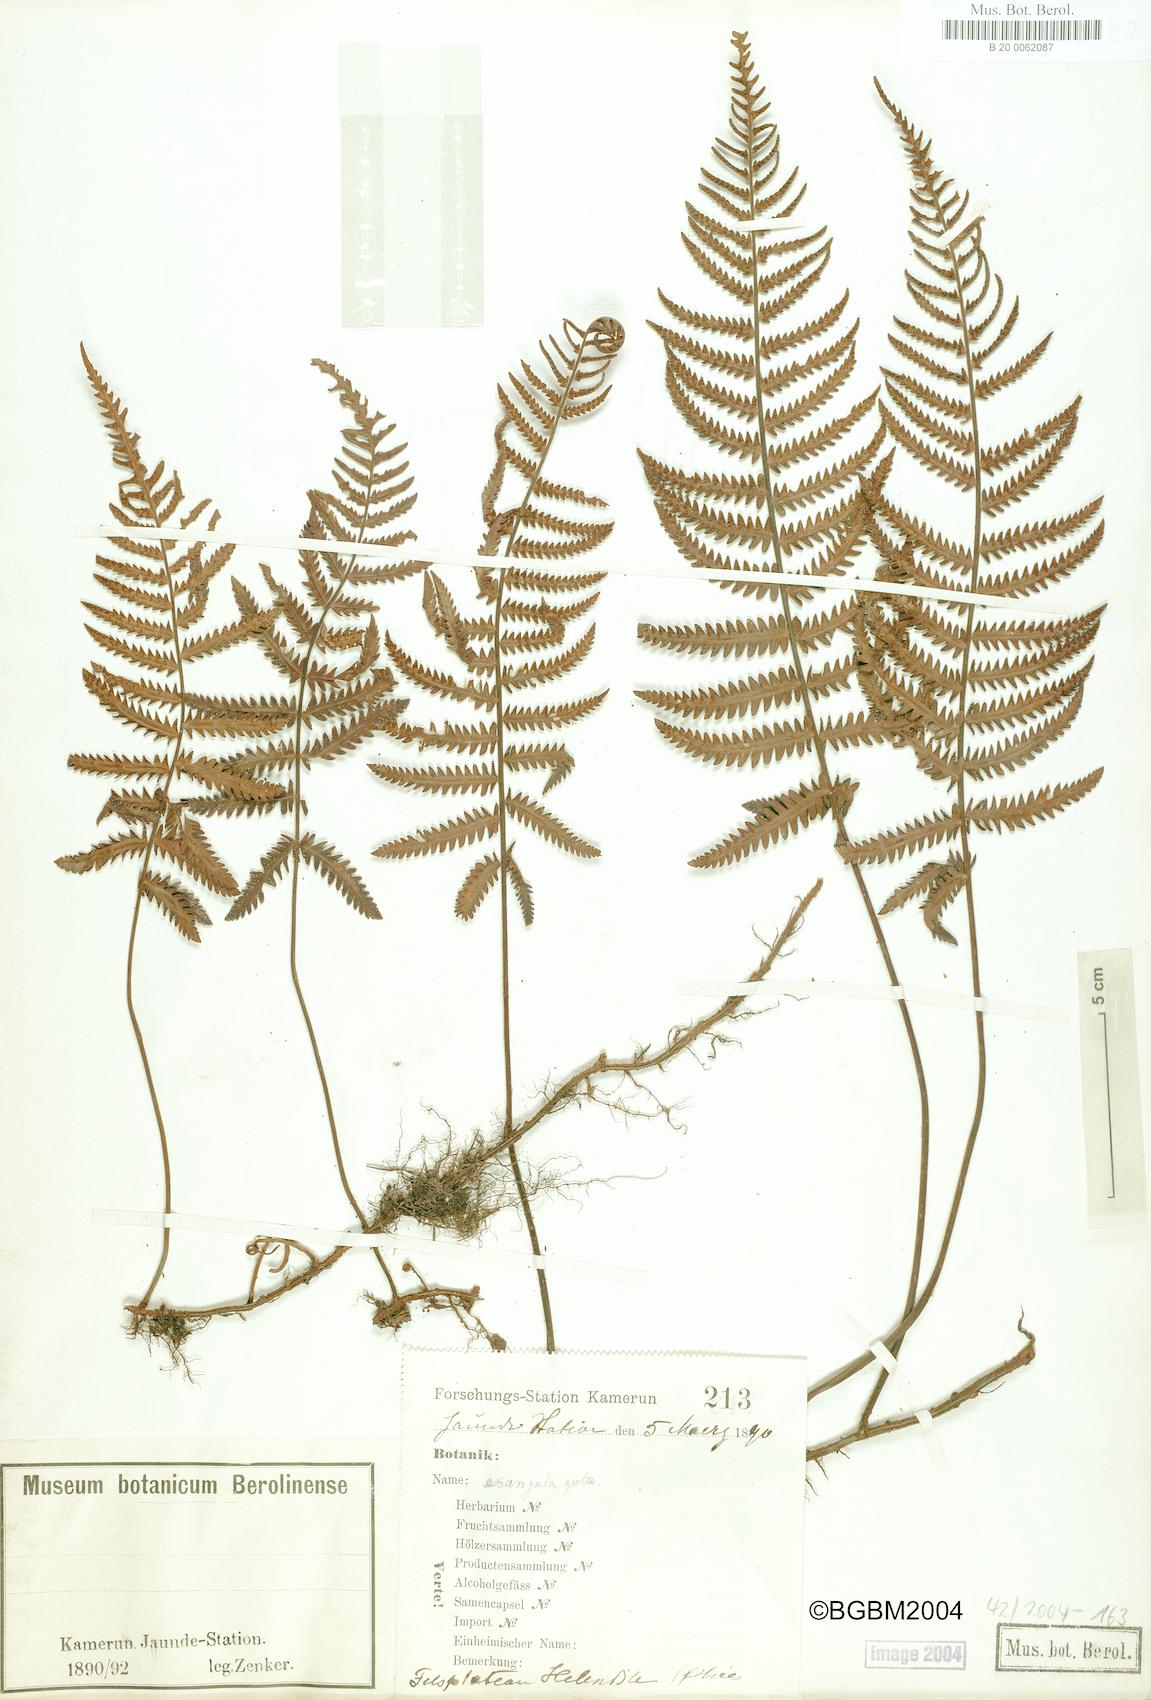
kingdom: Plantae
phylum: Tracheophyta
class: Polypodiopsida
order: Polypodiales
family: Tectariaceae
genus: Arthropteris
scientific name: Arthropteris orientalis
